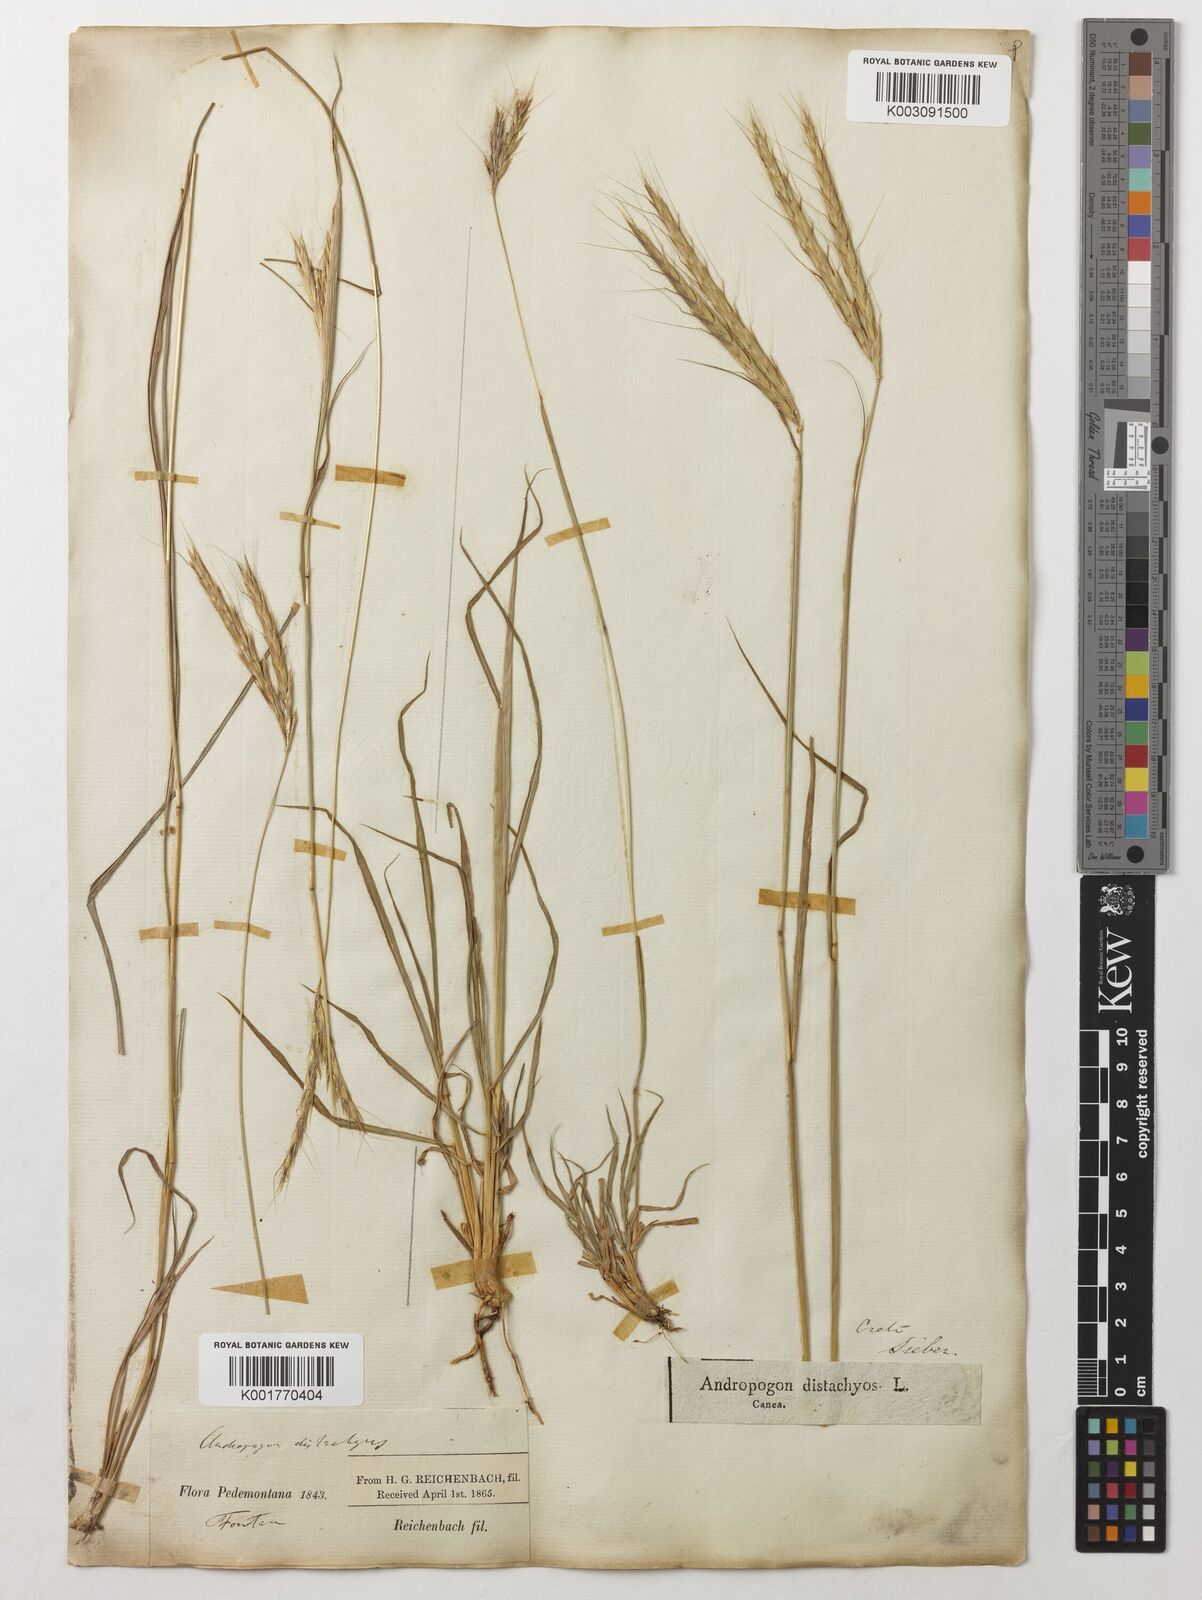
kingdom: Plantae
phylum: Tracheophyta
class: Liliopsida
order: Poales
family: Poaceae
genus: Andropogon
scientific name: Andropogon distachyos
